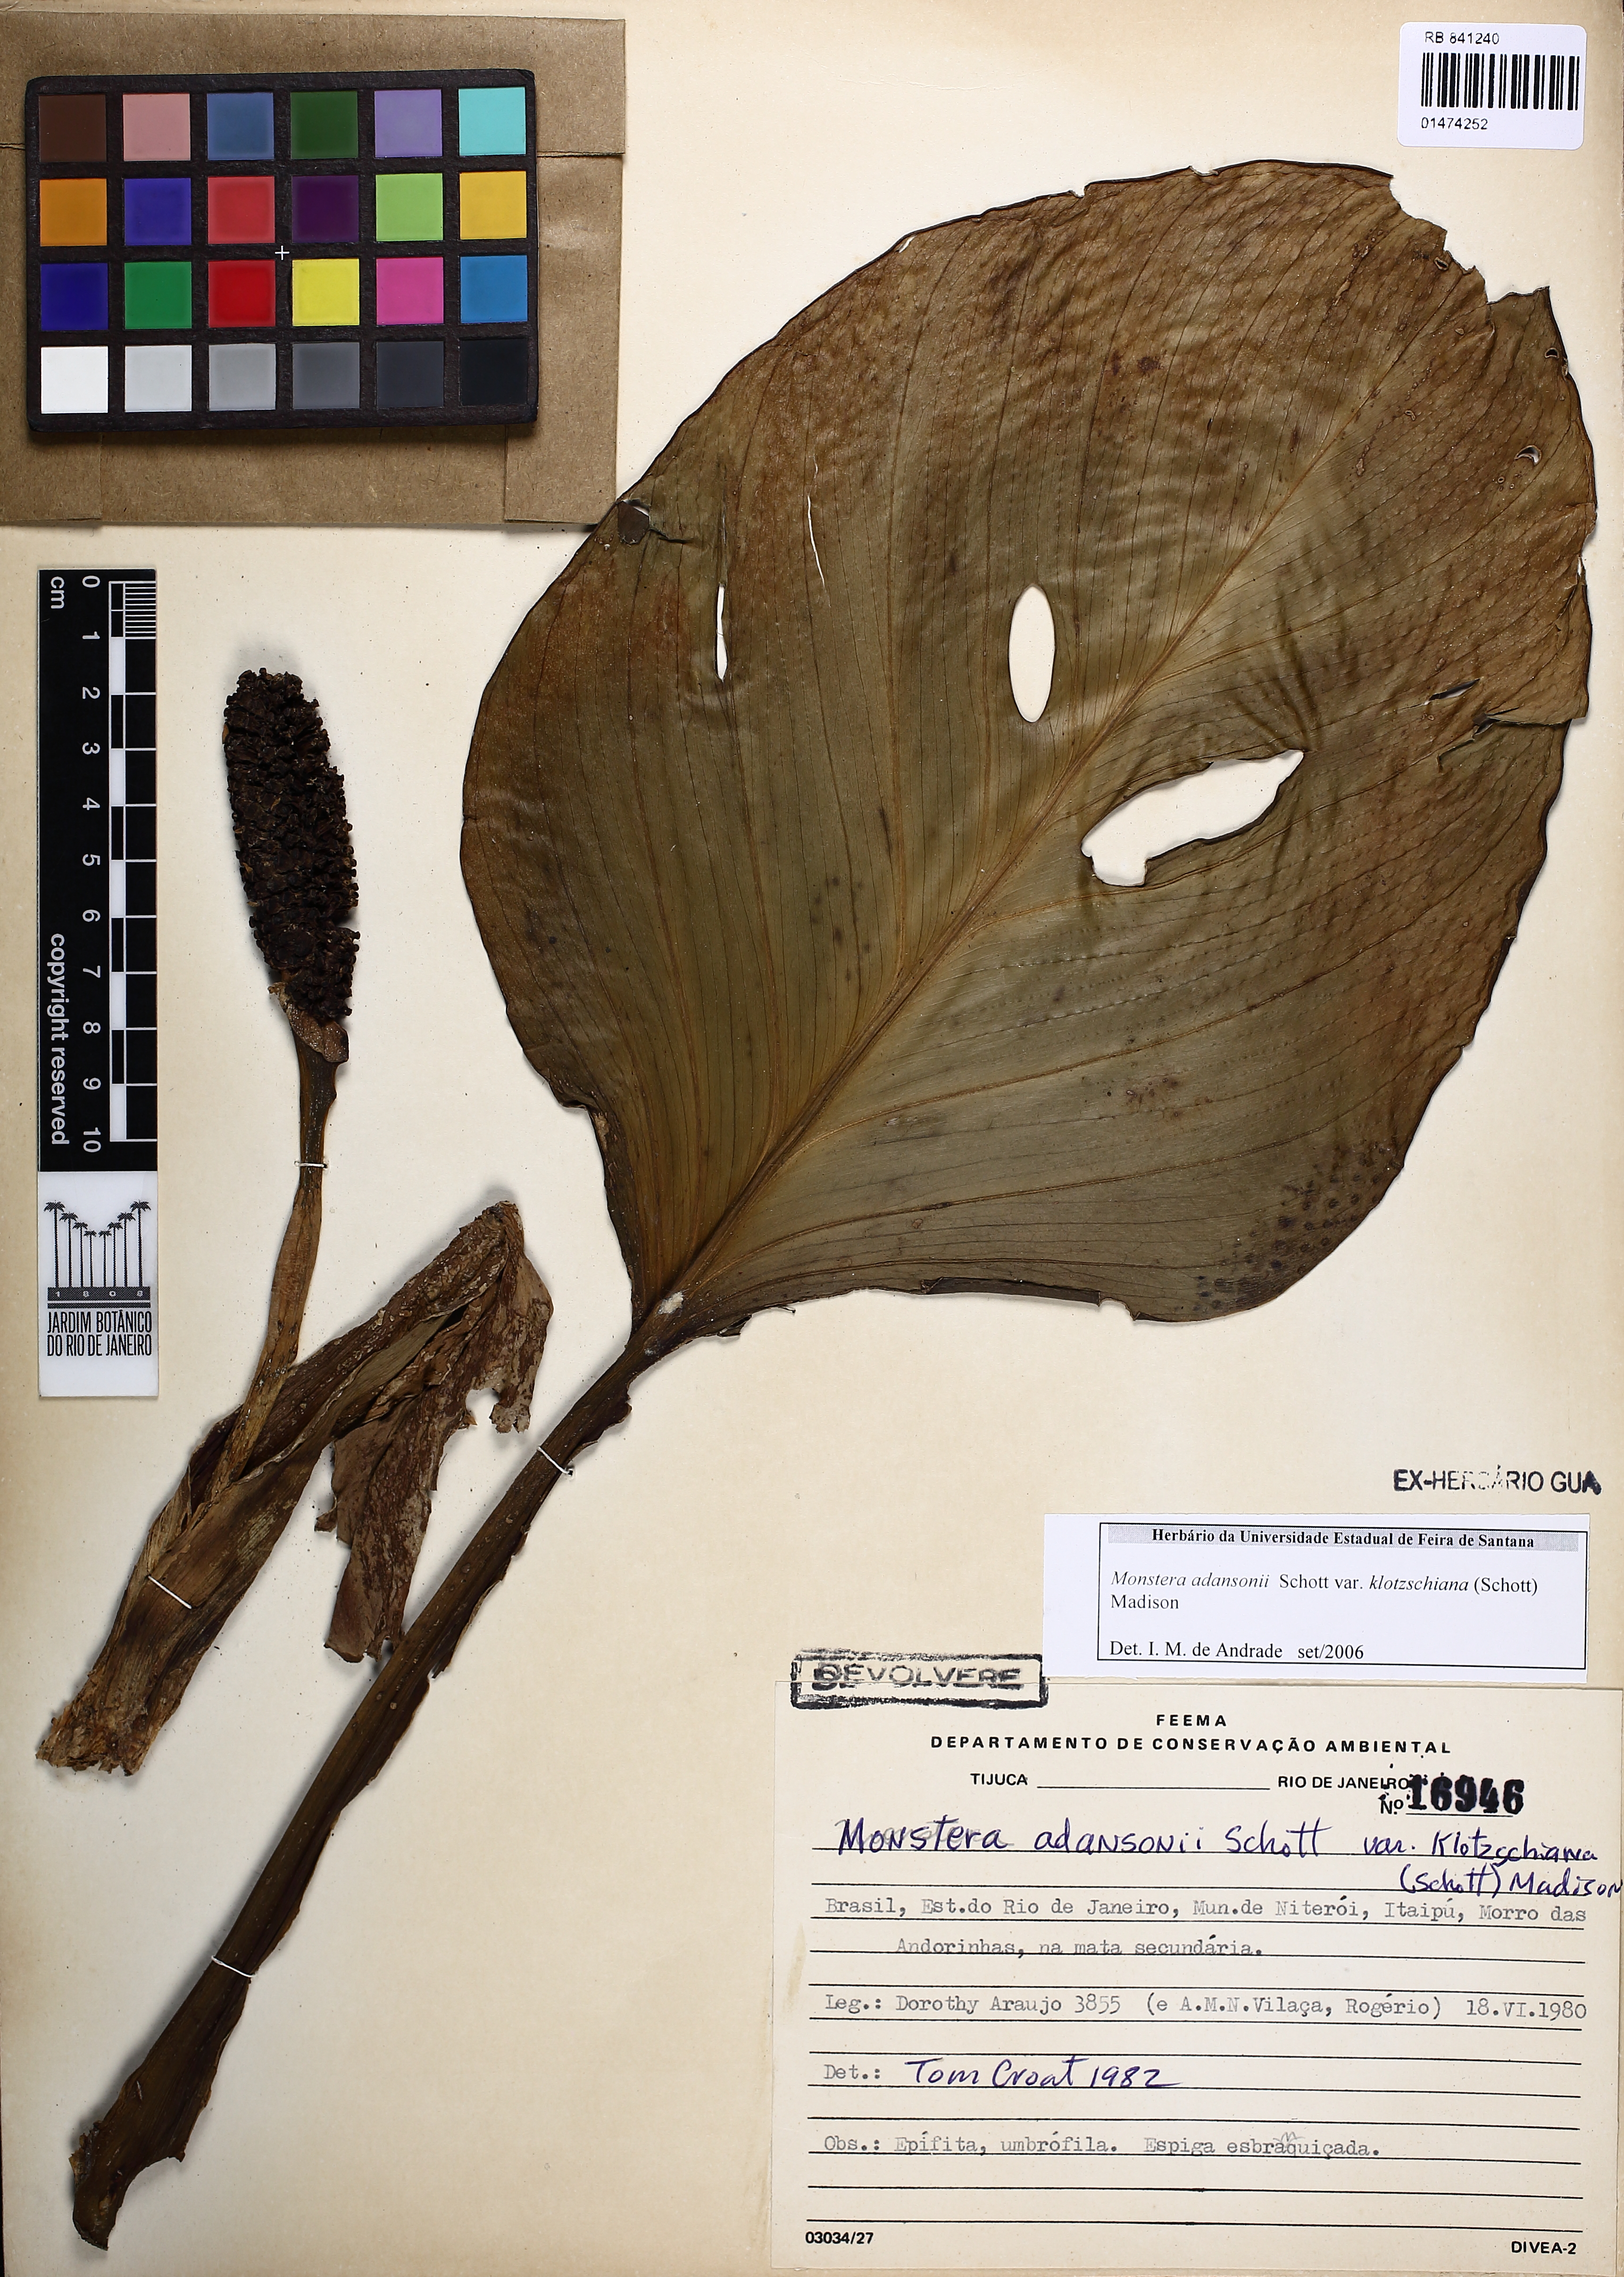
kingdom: Plantae
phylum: Tracheophyta
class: Liliopsida
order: Alismatales
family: Araceae
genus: Monstera
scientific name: Monstera adansonii
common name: Tarovine
